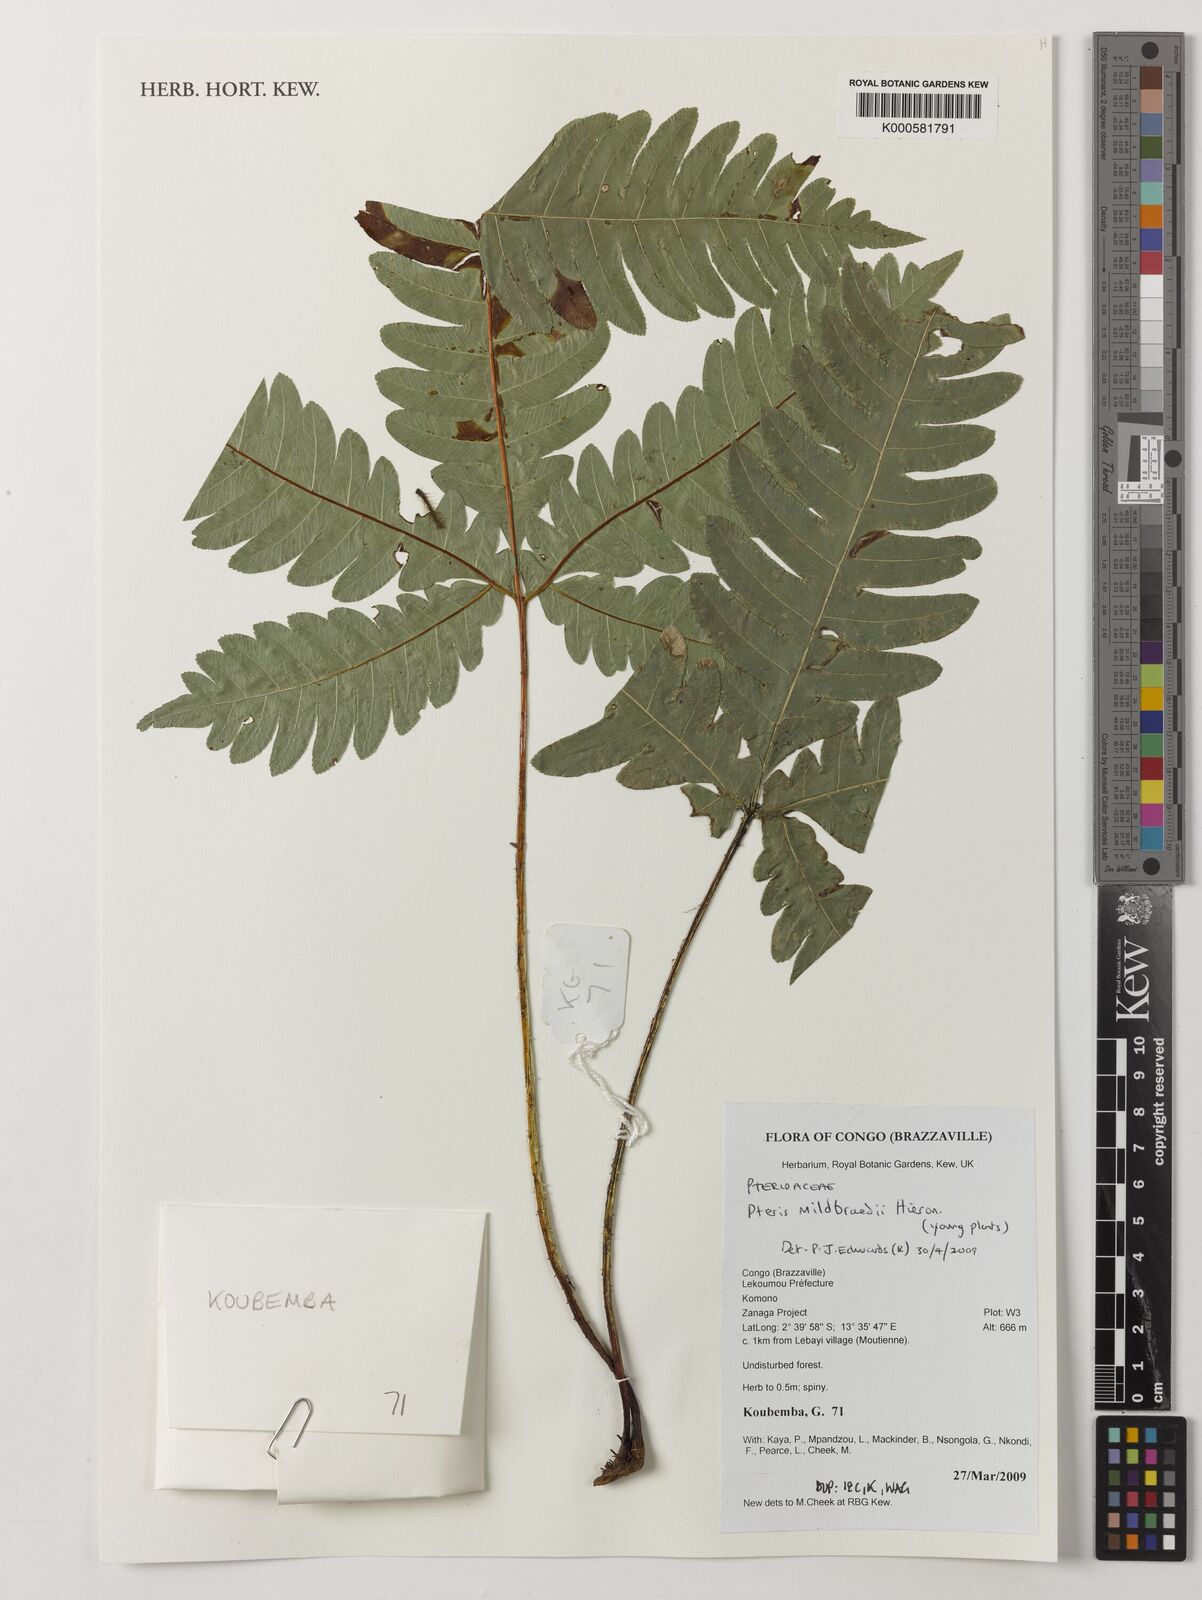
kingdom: Plantae
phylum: Tracheophyta
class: Polypodiopsida
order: Polypodiales
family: Pteridaceae
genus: Pteris
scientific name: Pteris mildbraedii
